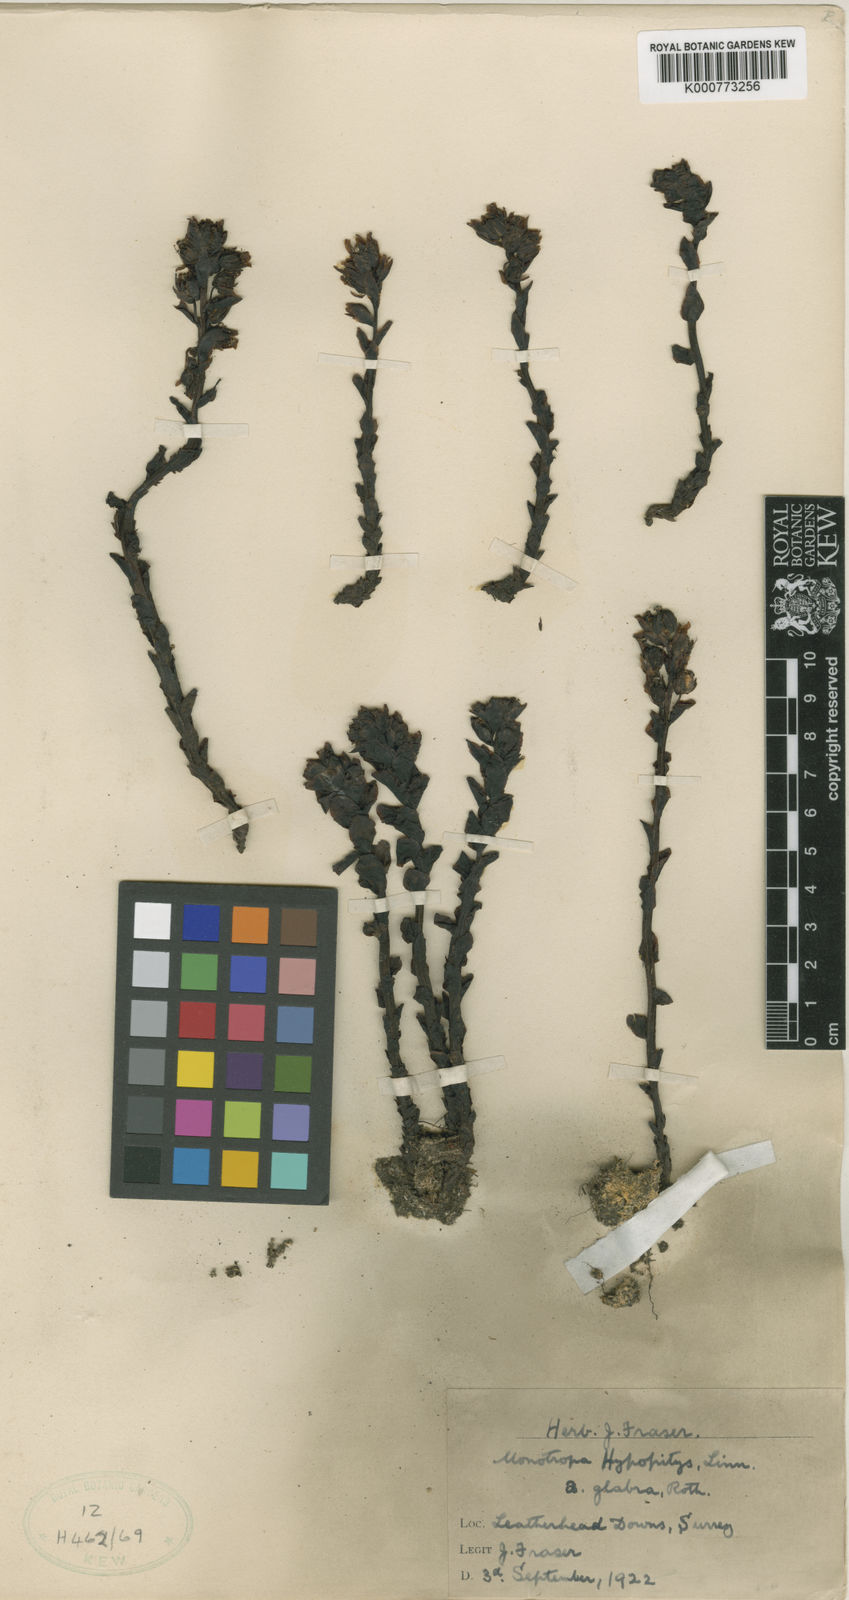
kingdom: Plantae
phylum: Tracheophyta
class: Magnoliopsida
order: Ericales
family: Ericaceae
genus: Monotropa
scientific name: Monotropa
